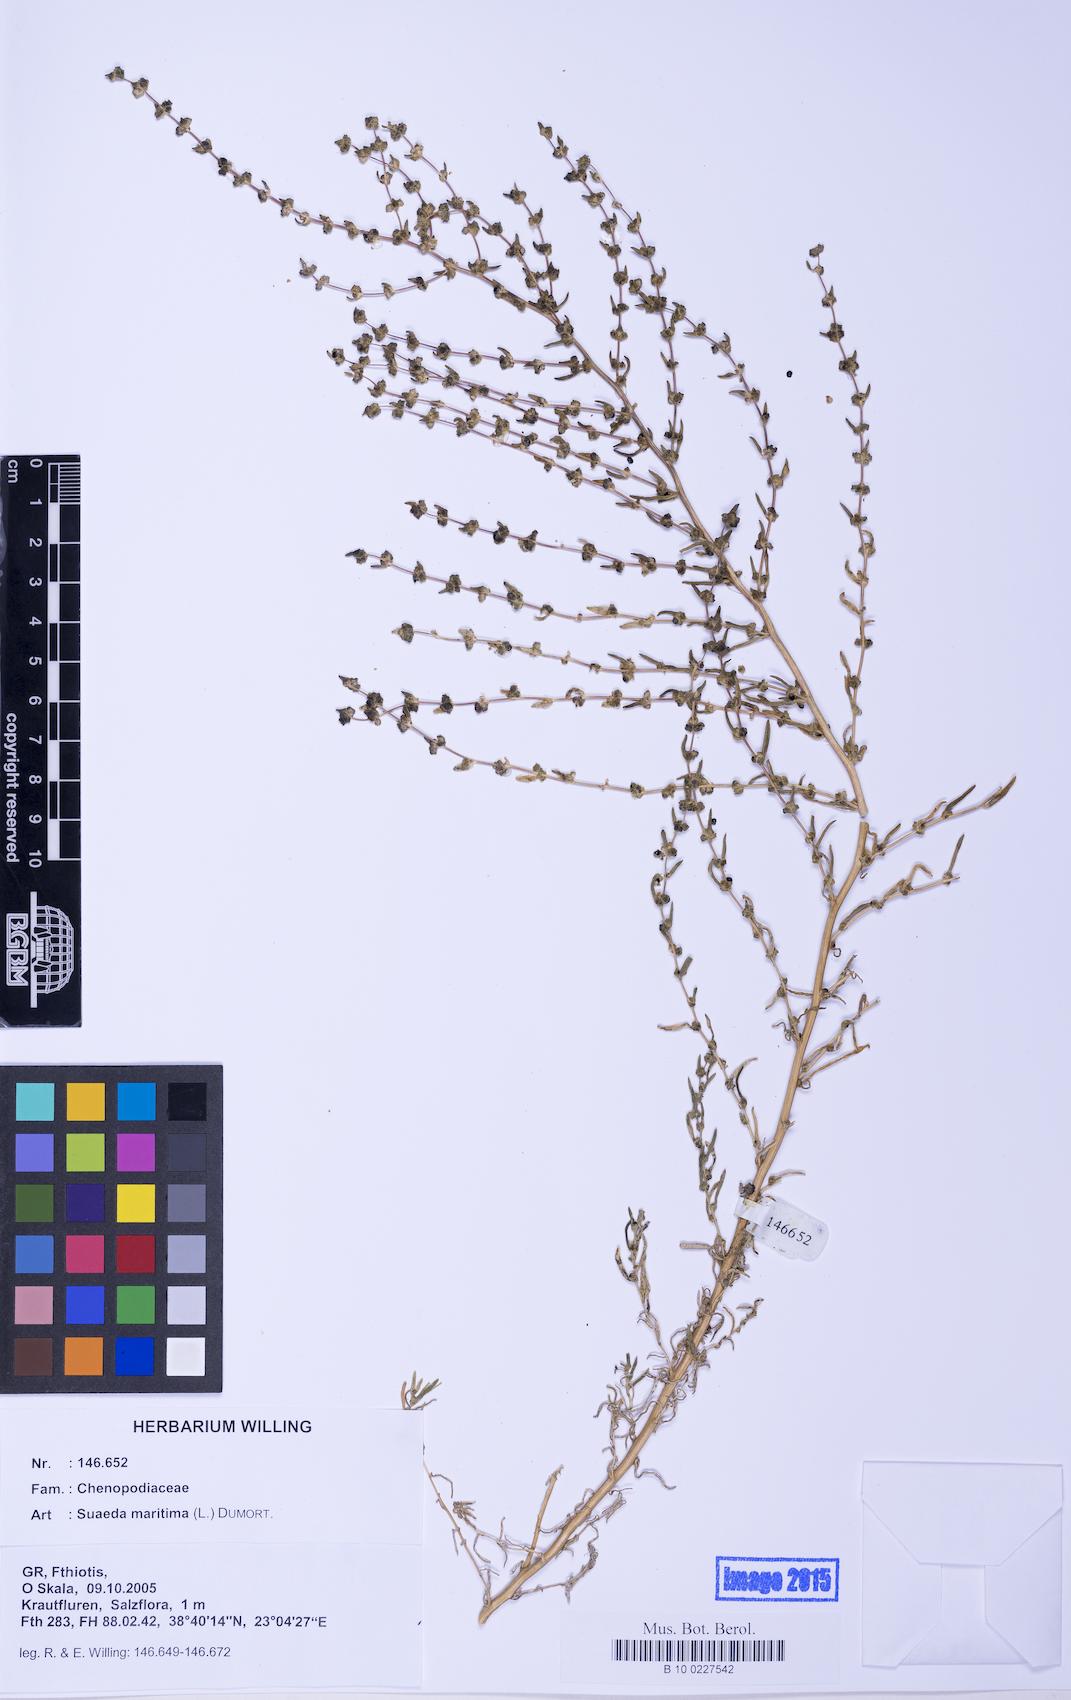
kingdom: Plantae
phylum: Tracheophyta
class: Magnoliopsida
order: Caryophyllales
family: Amaranthaceae
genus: Suaeda
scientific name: Suaeda maritima
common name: Annual sea-blite
